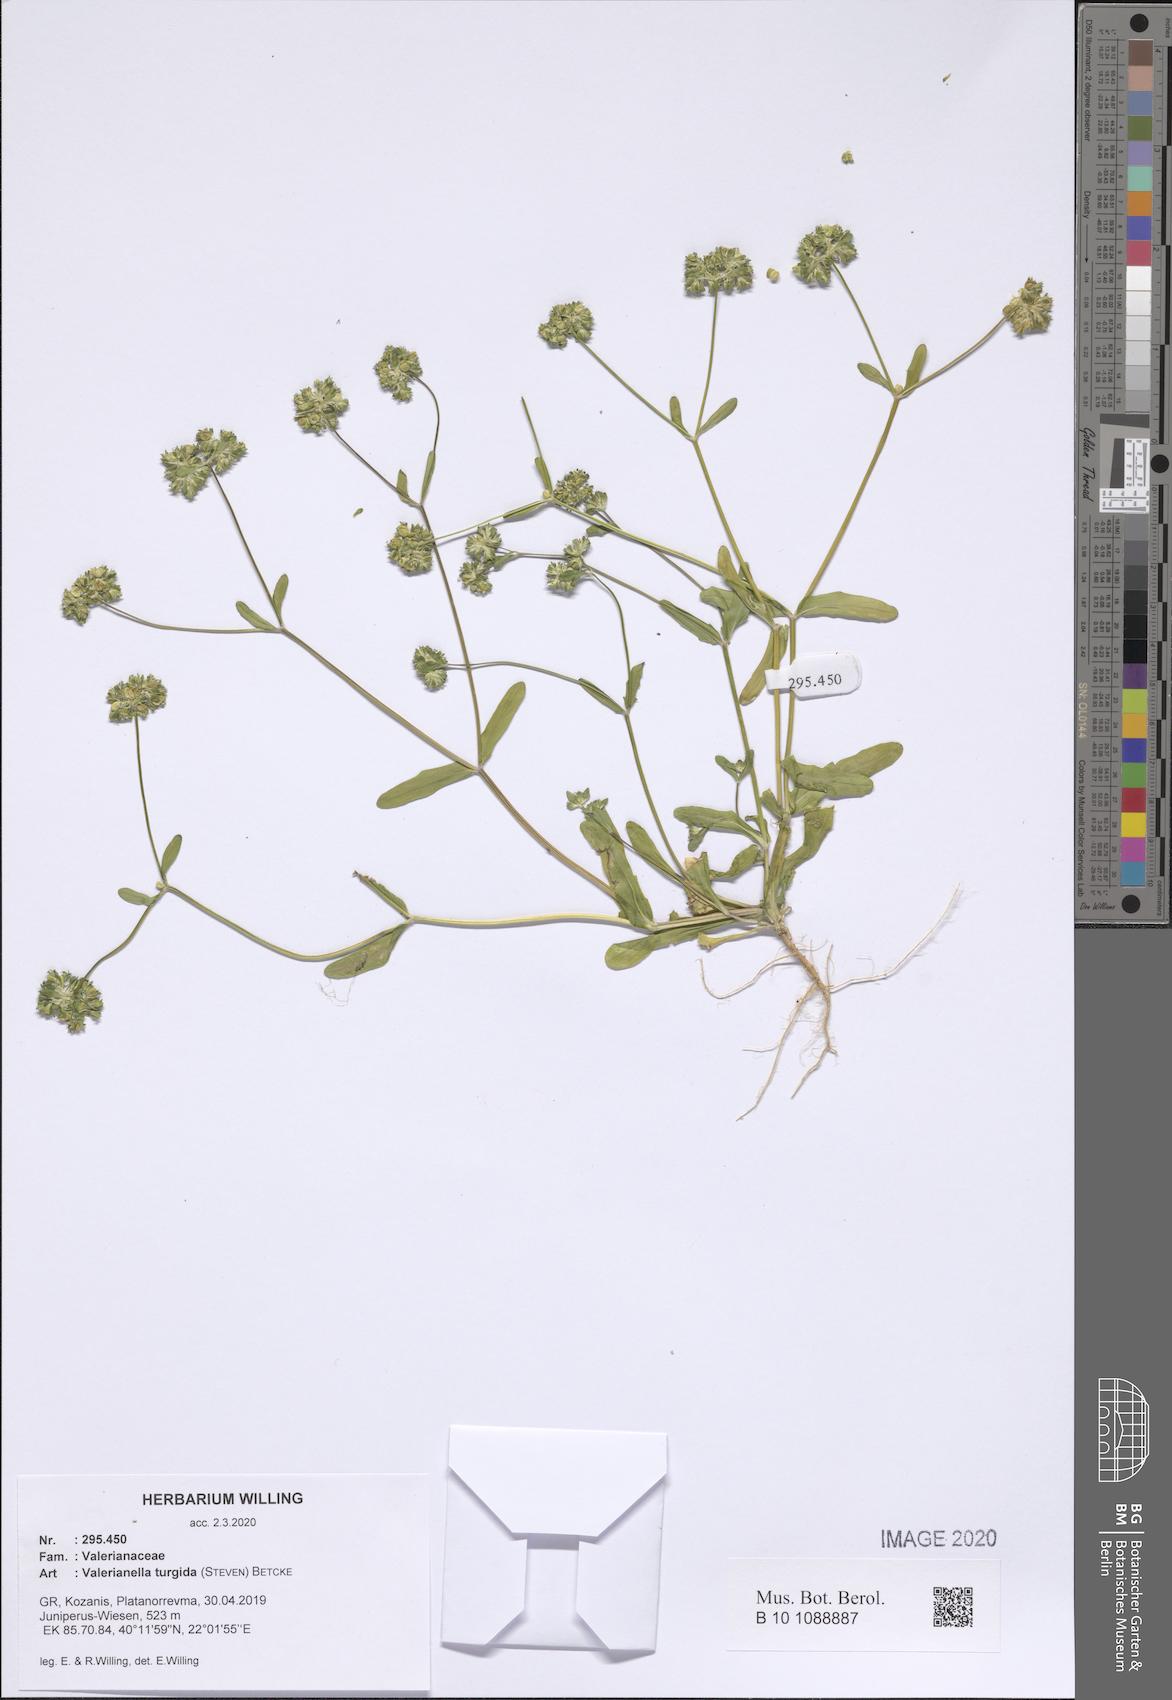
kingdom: Plantae
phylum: Tracheophyta
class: Magnoliopsida
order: Dipsacales
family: Caprifoliaceae
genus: Valerianella
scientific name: Valerianella turgida
